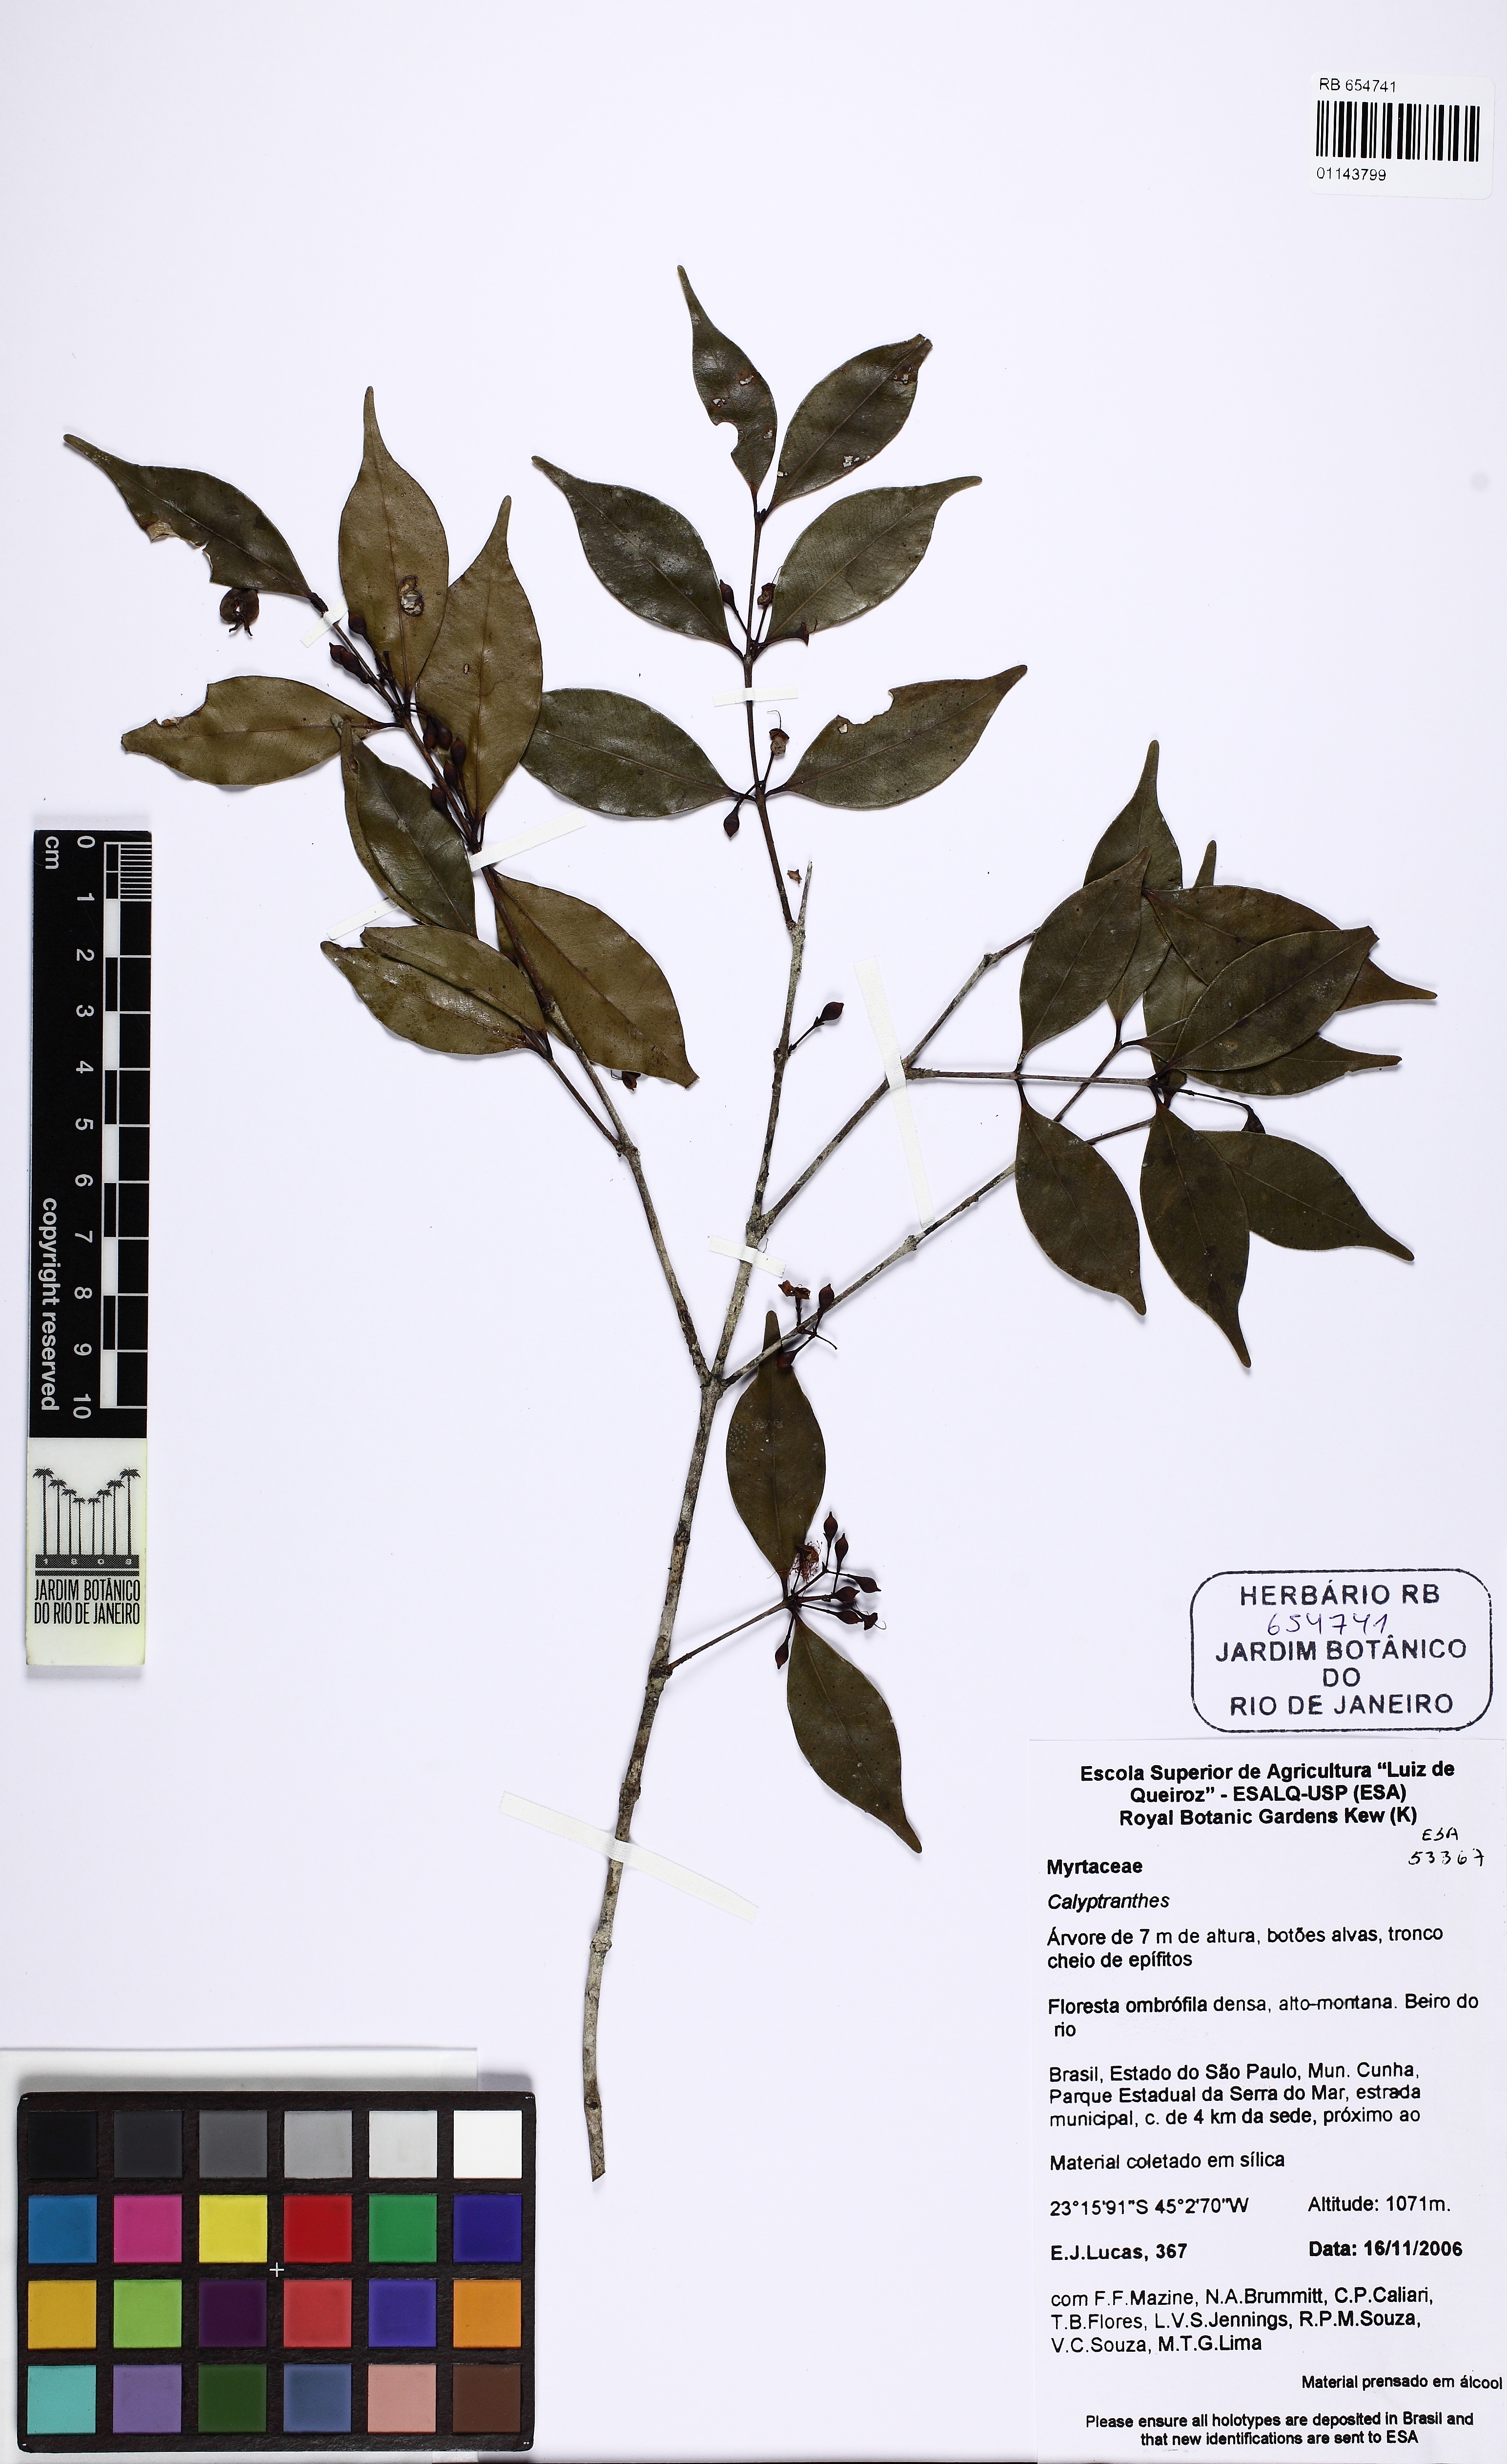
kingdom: Plantae
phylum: Tracheophyta
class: Magnoliopsida
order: Myrtales
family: Myrtaceae
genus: Neomitranthes
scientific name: Neomitranthes capivariensis
